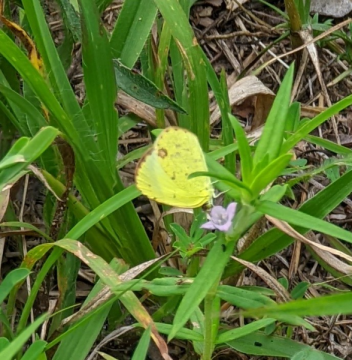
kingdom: Animalia
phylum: Arthropoda
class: Insecta
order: Lepidoptera
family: Pieridae
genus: Pyrisitia
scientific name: Pyrisitia lisa
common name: Little Yellow
